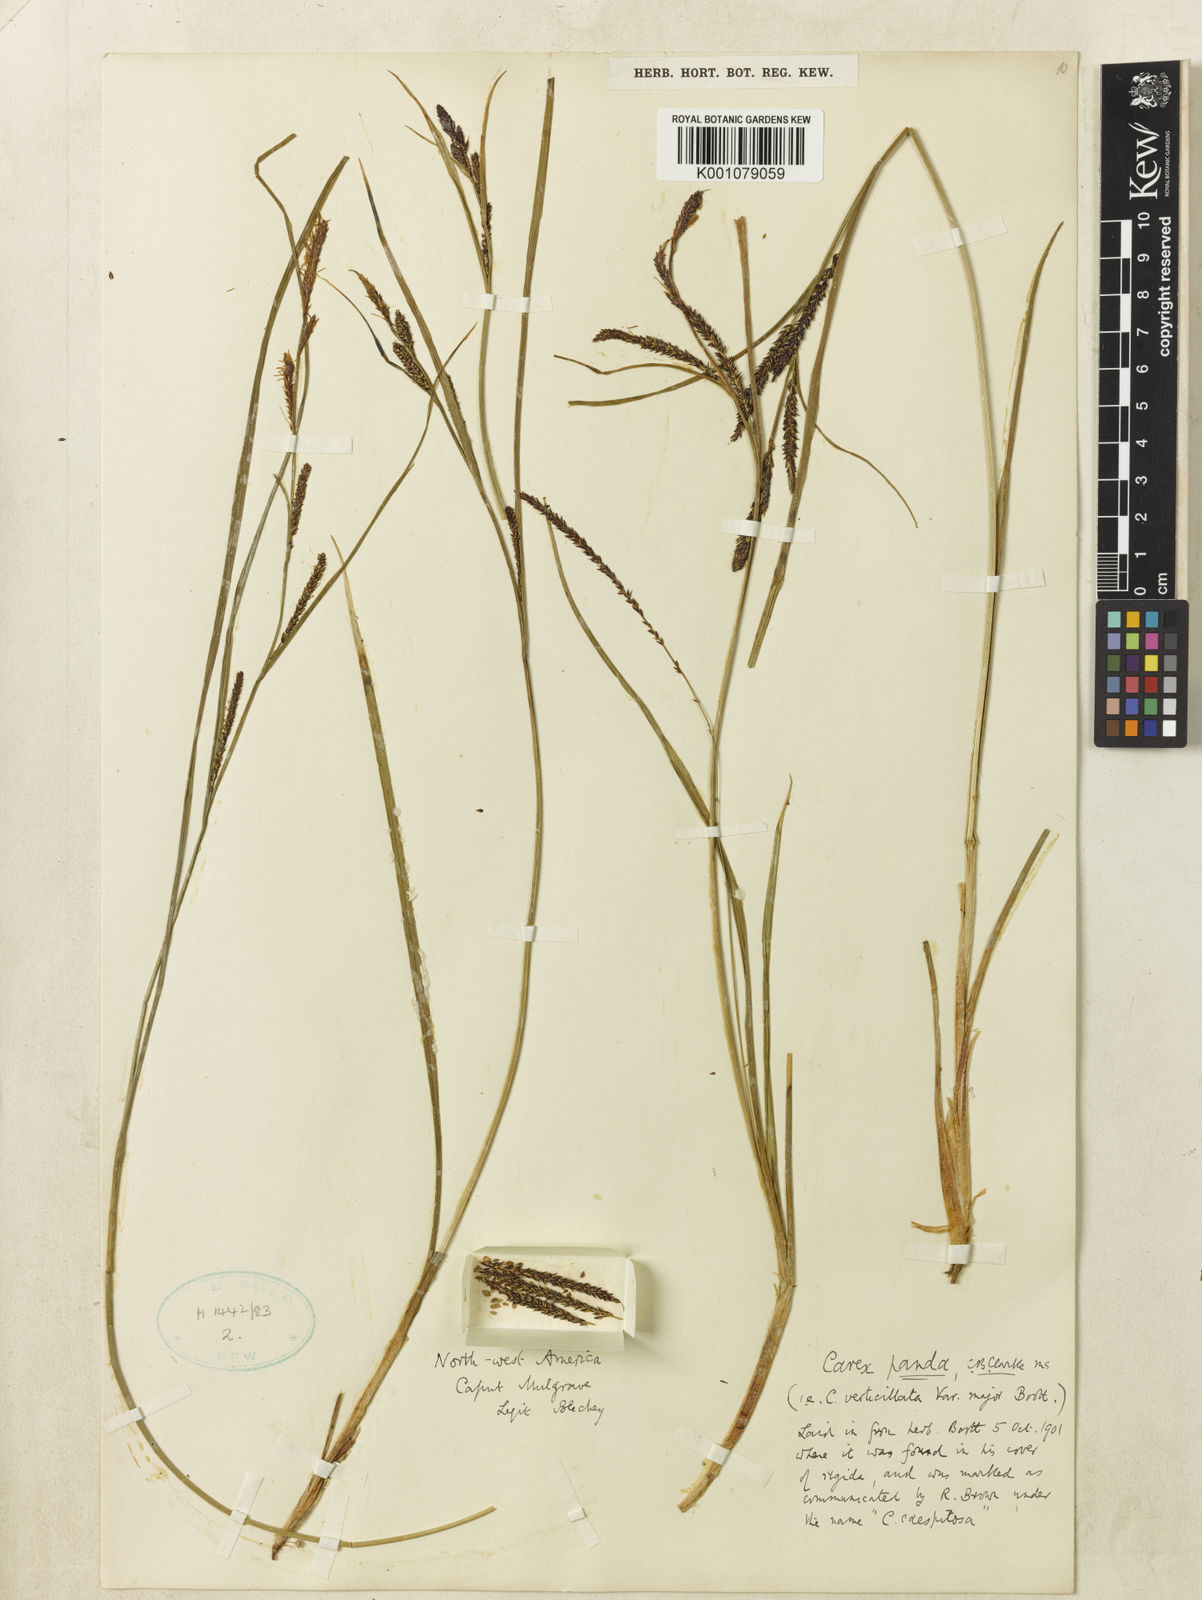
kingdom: Plantae
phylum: Tracheophyta
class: Liliopsida
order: Poales
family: Cyperaceae
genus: Carex
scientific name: Carex aquatilis
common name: Water sedge
